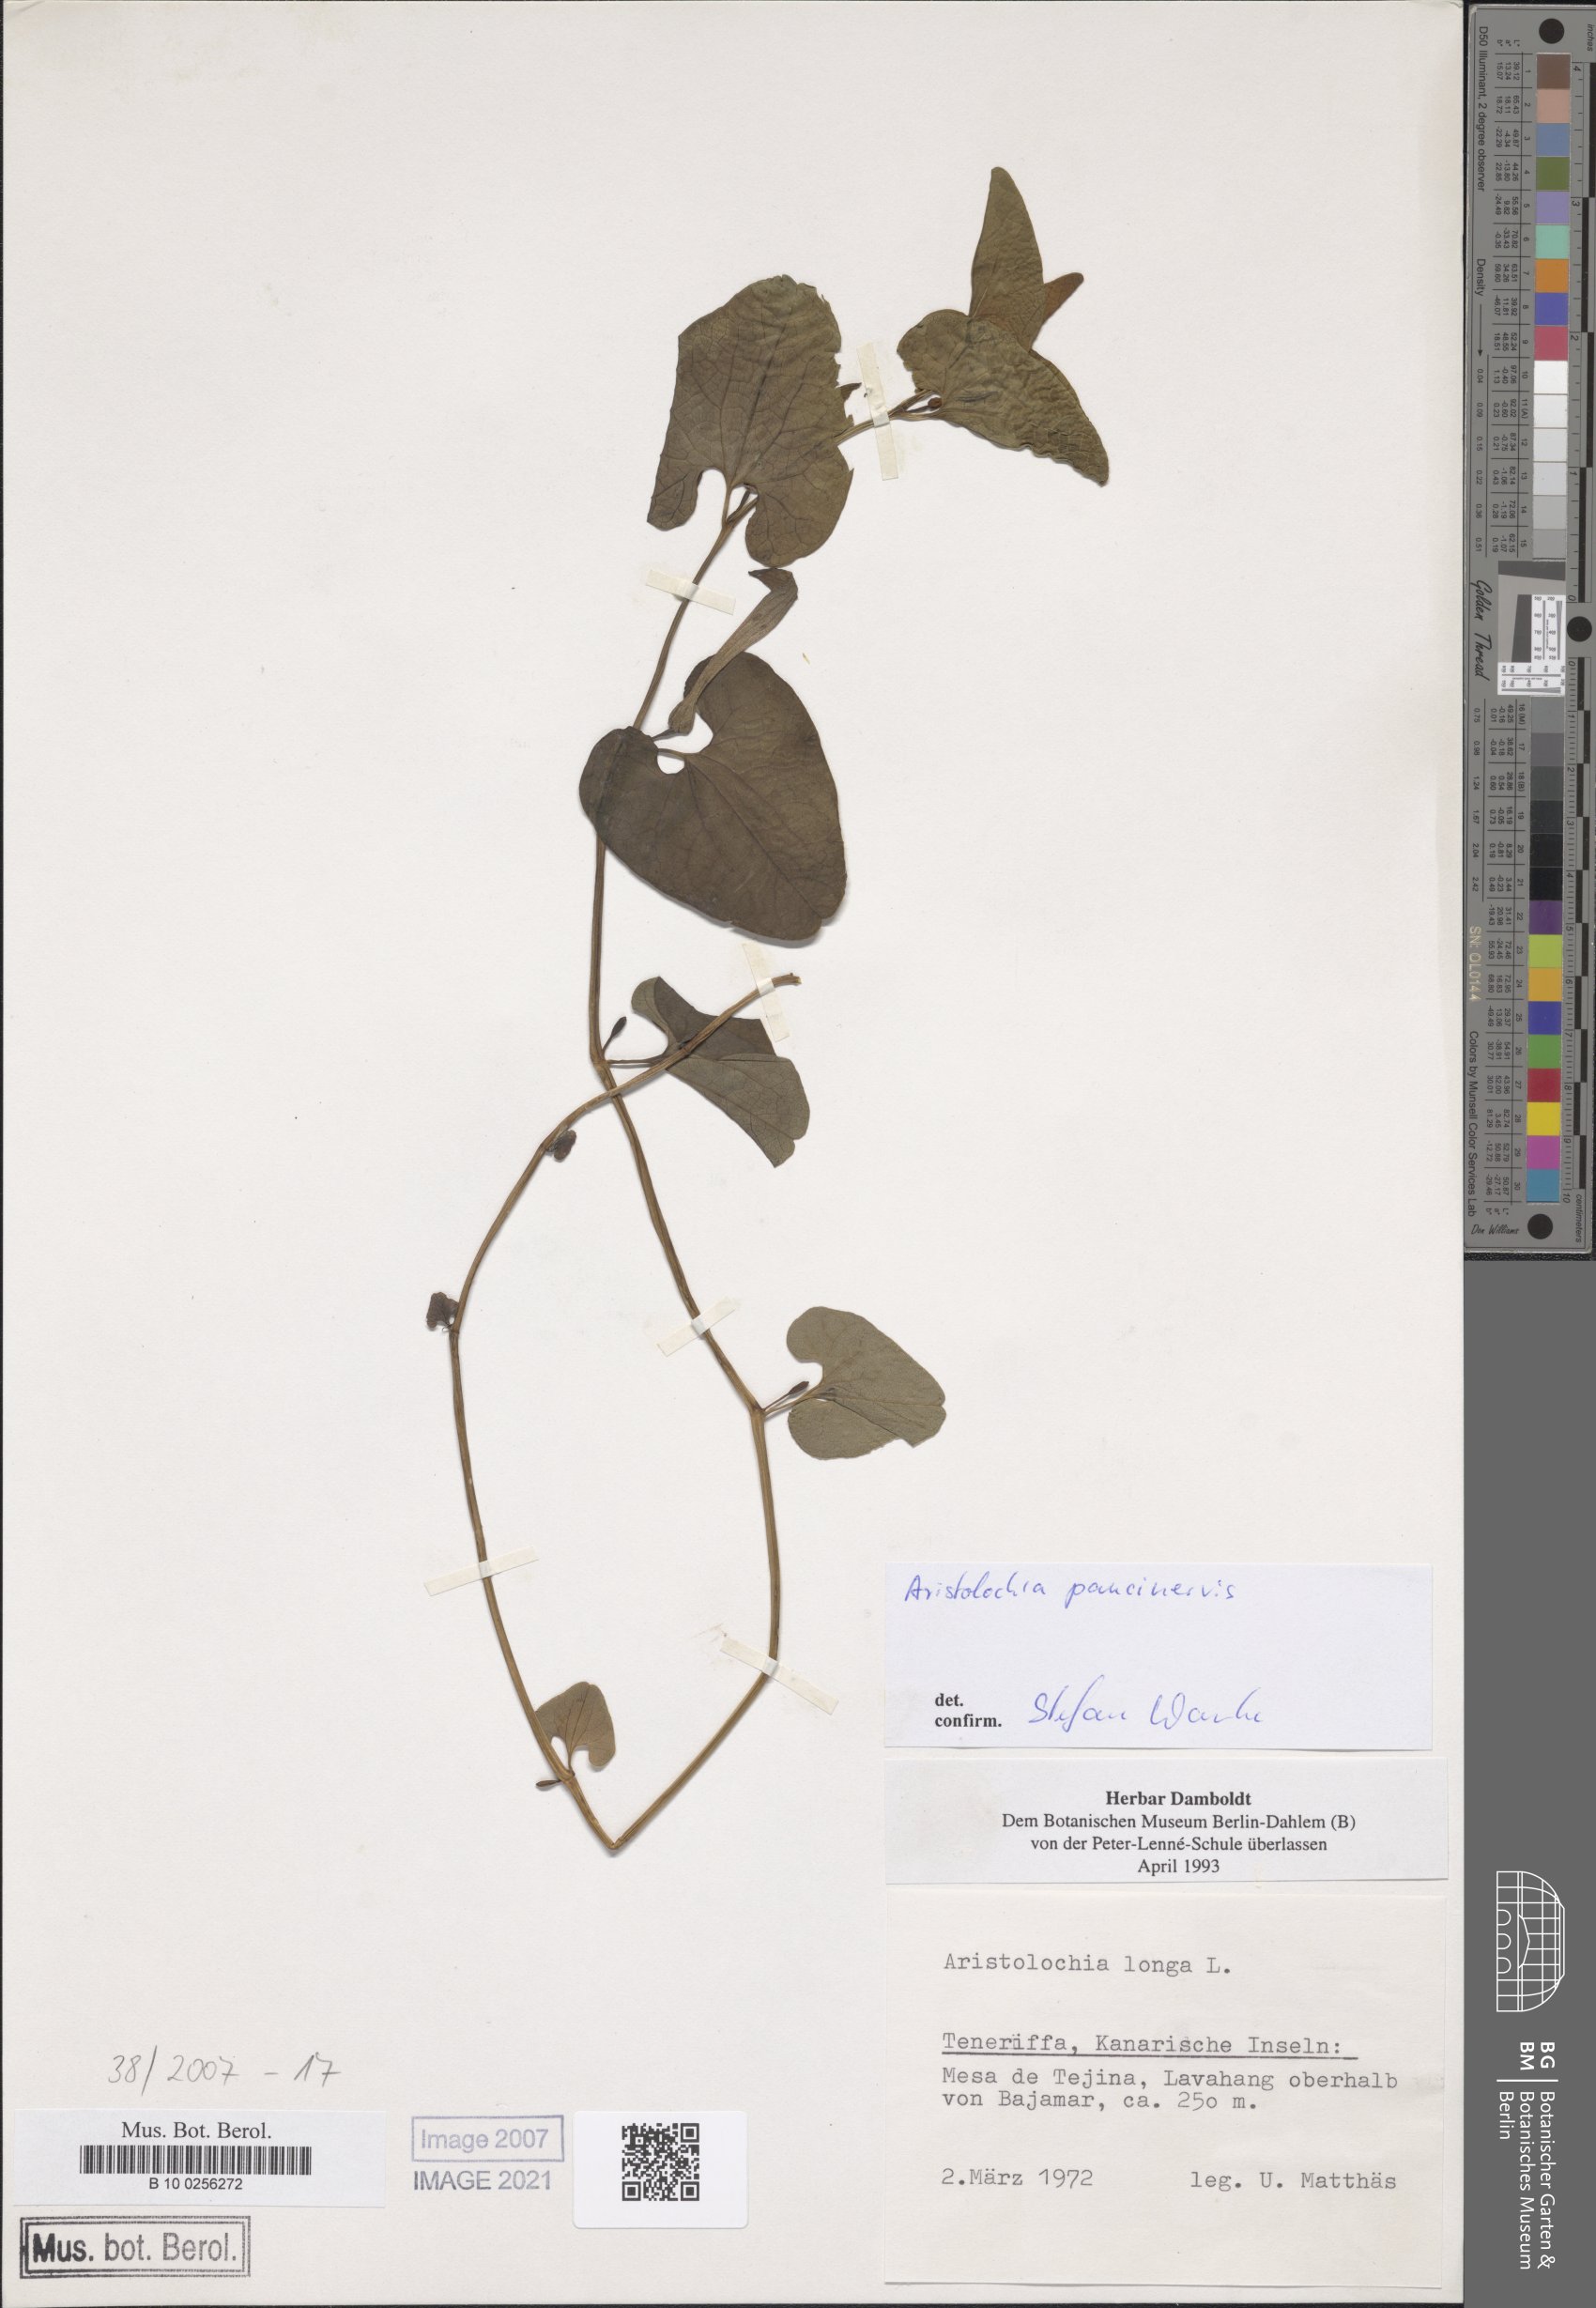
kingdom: Plantae
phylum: Tracheophyta
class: Magnoliopsida
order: Piperales
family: Aristolochiaceae
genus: Aristolochia
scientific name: Aristolochia paucinervis
